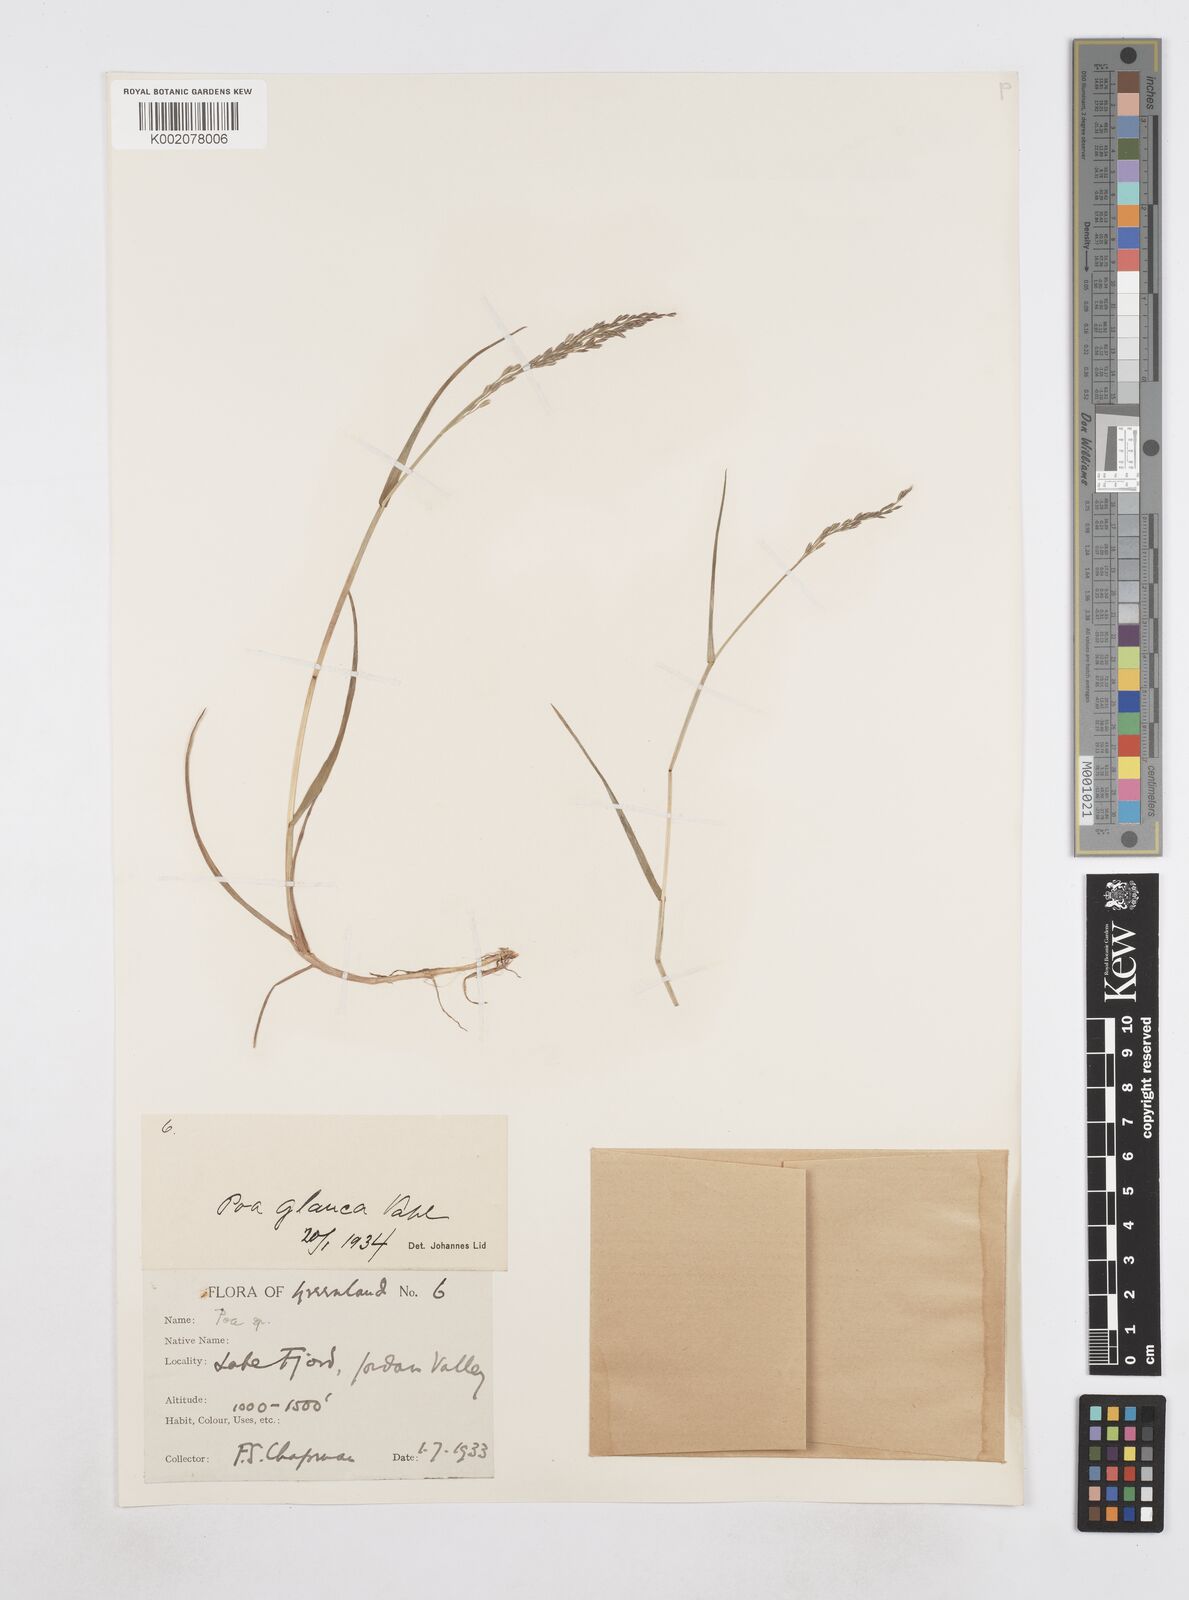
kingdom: Plantae
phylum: Tracheophyta
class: Liliopsida
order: Poales
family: Poaceae
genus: Poa
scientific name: Poa
